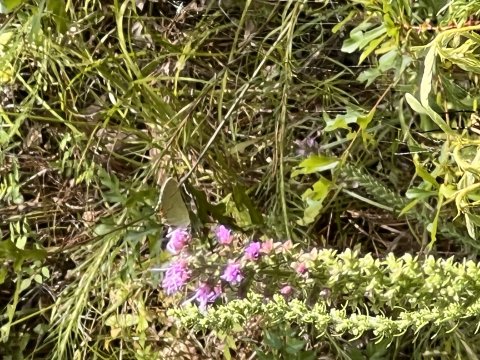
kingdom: Animalia
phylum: Arthropoda
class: Insecta
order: Lepidoptera
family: Lycaenidae
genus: Strymon
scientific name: Strymon melinus
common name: Gray Hairstreak
